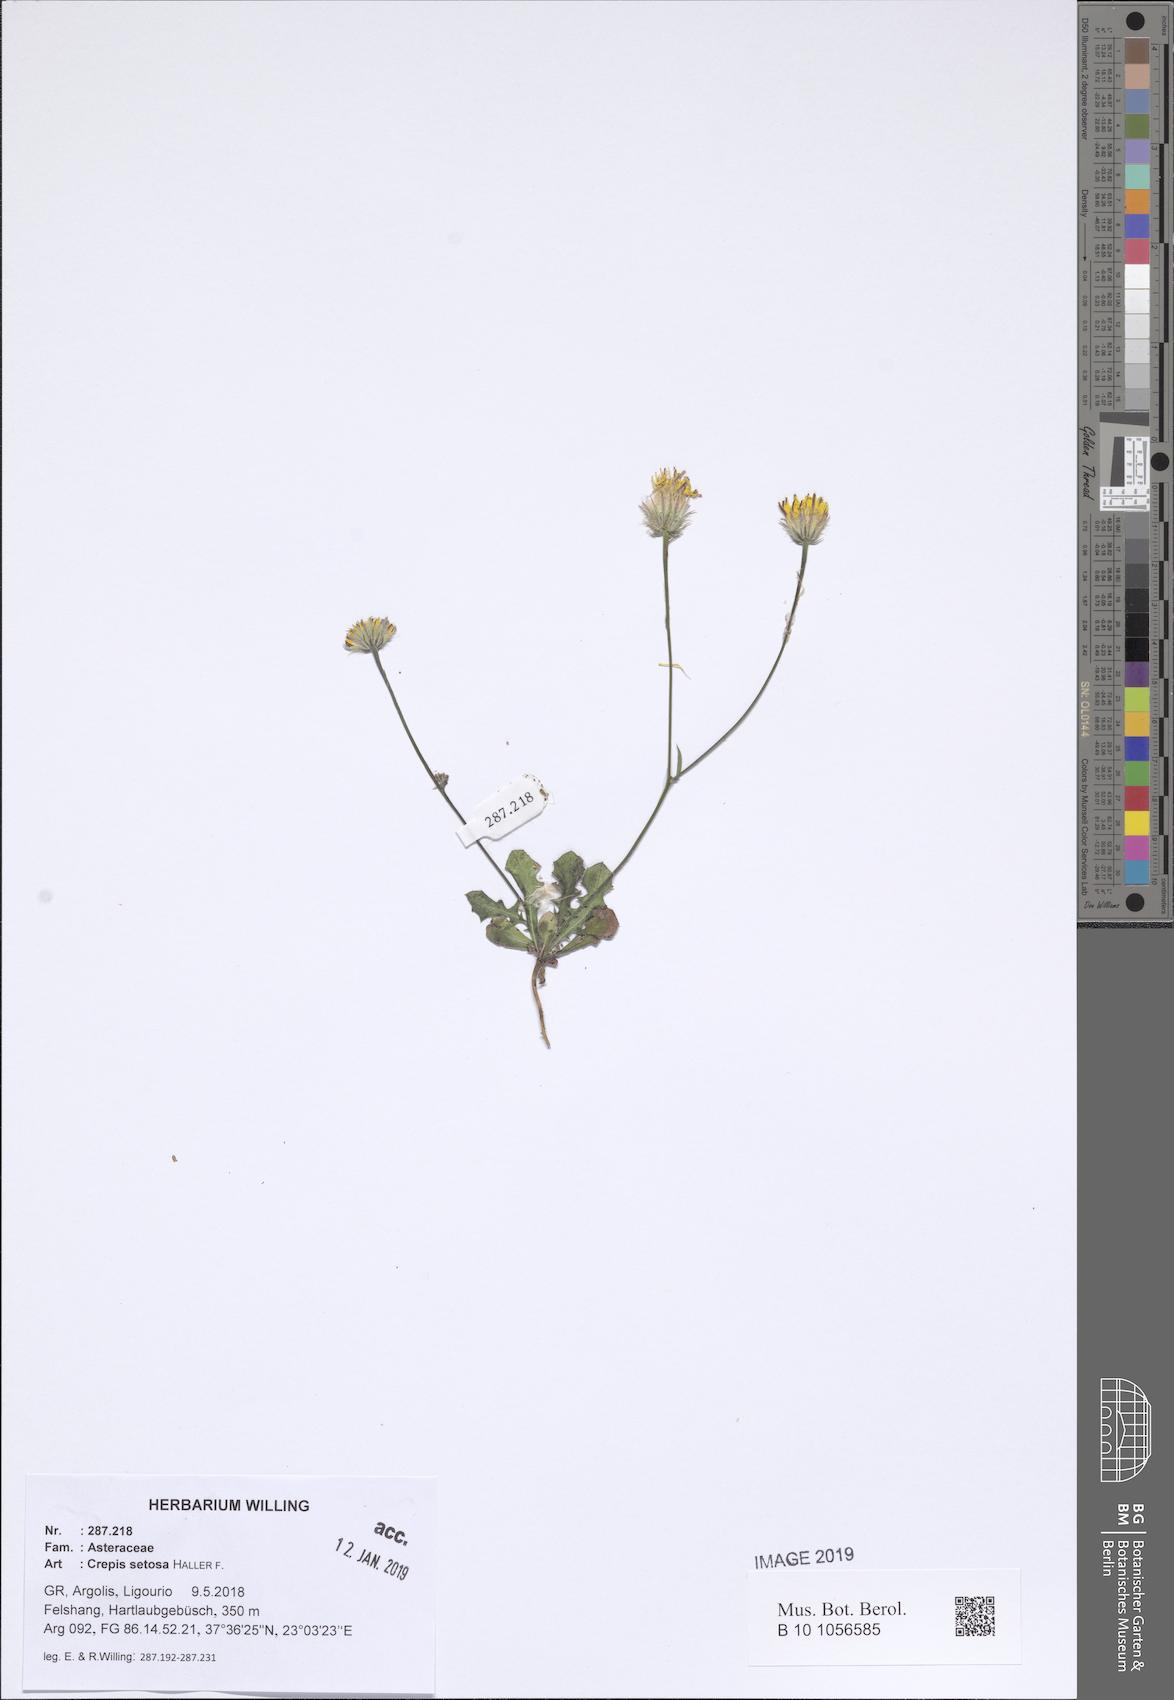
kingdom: Plantae
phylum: Tracheophyta
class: Magnoliopsida
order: Asterales
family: Asteraceae
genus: Crepis
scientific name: Crepis setosa
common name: Bristly hawk's-beard
